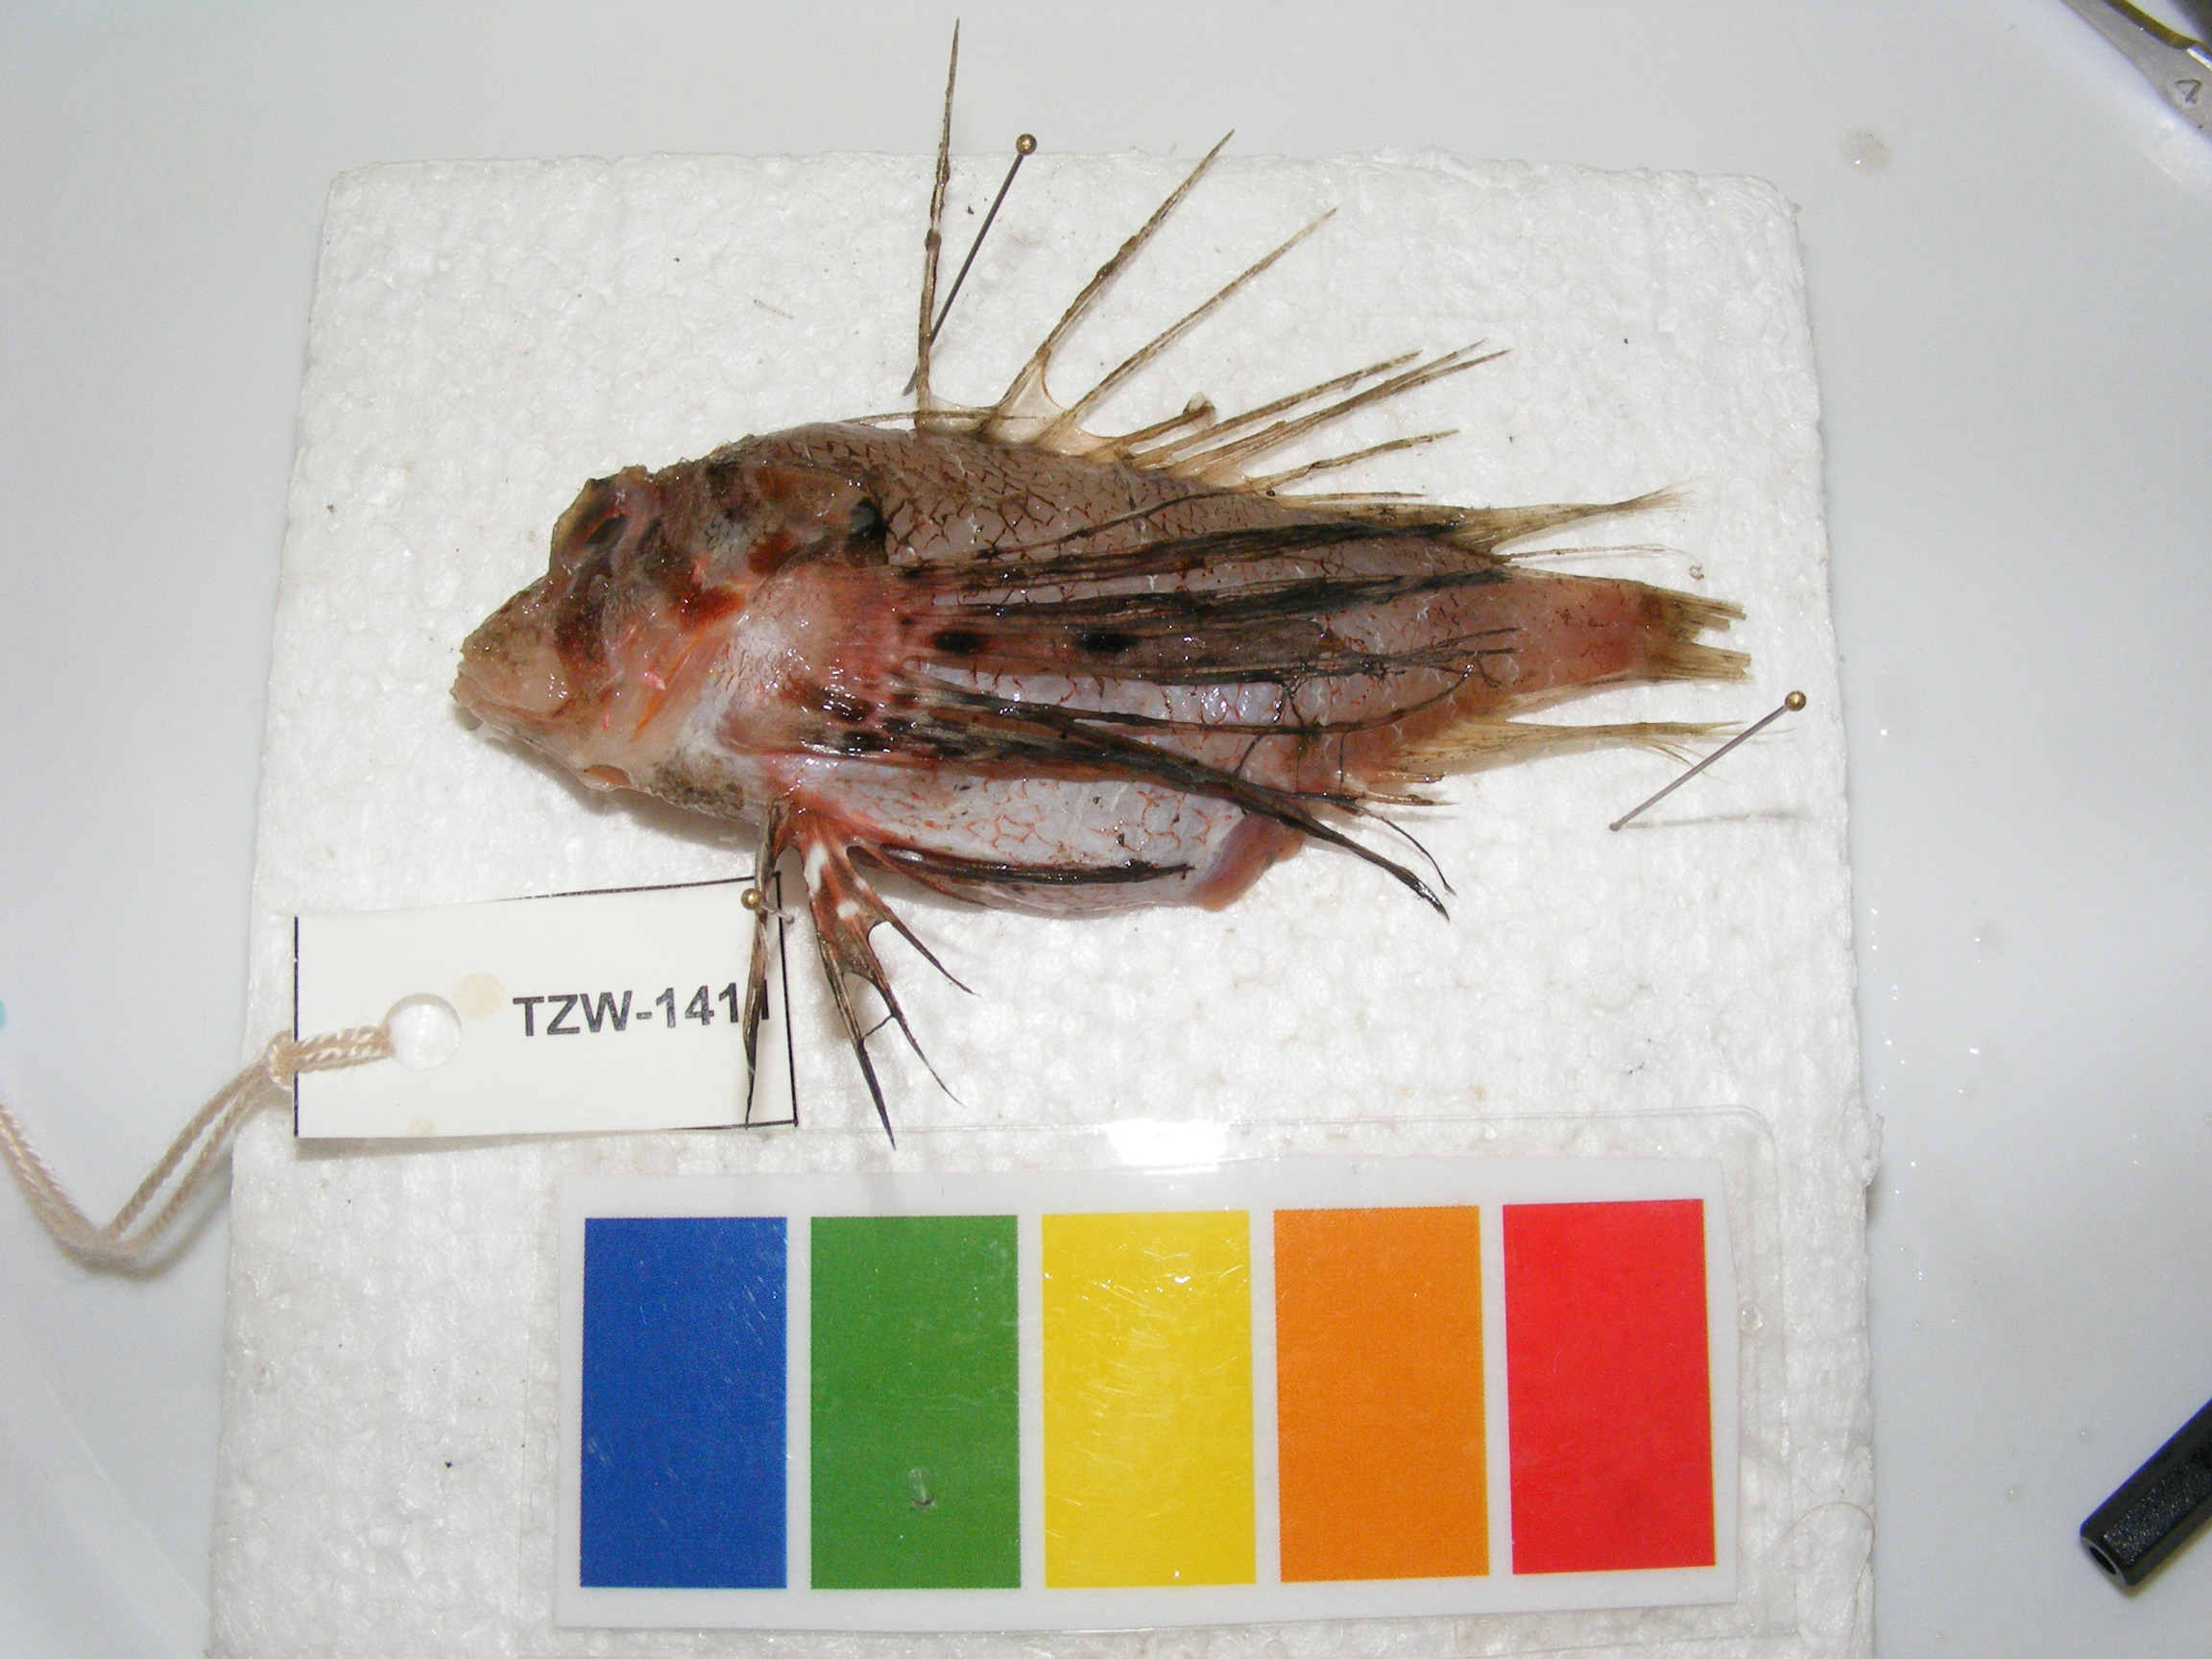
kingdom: Animalia
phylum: Chordata
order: Scorpaeniformes
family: Scorpaenidae
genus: Ebosia
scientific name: Ebosia vespertina
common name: Western falcate lionfish
